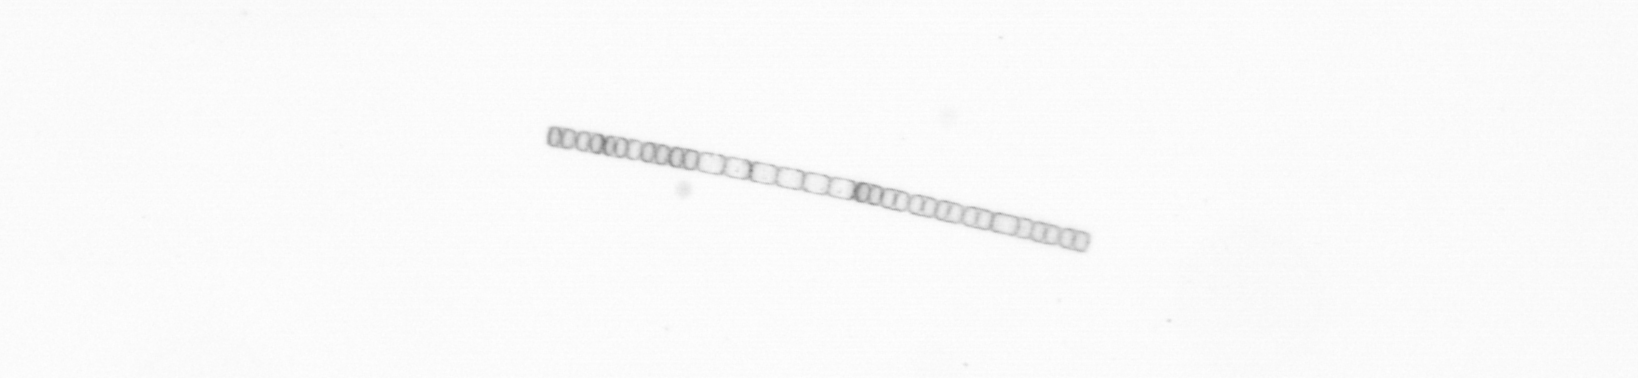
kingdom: Chromista
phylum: Ochrophyta
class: Bacillariophyceae
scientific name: Bacillariophyceae
